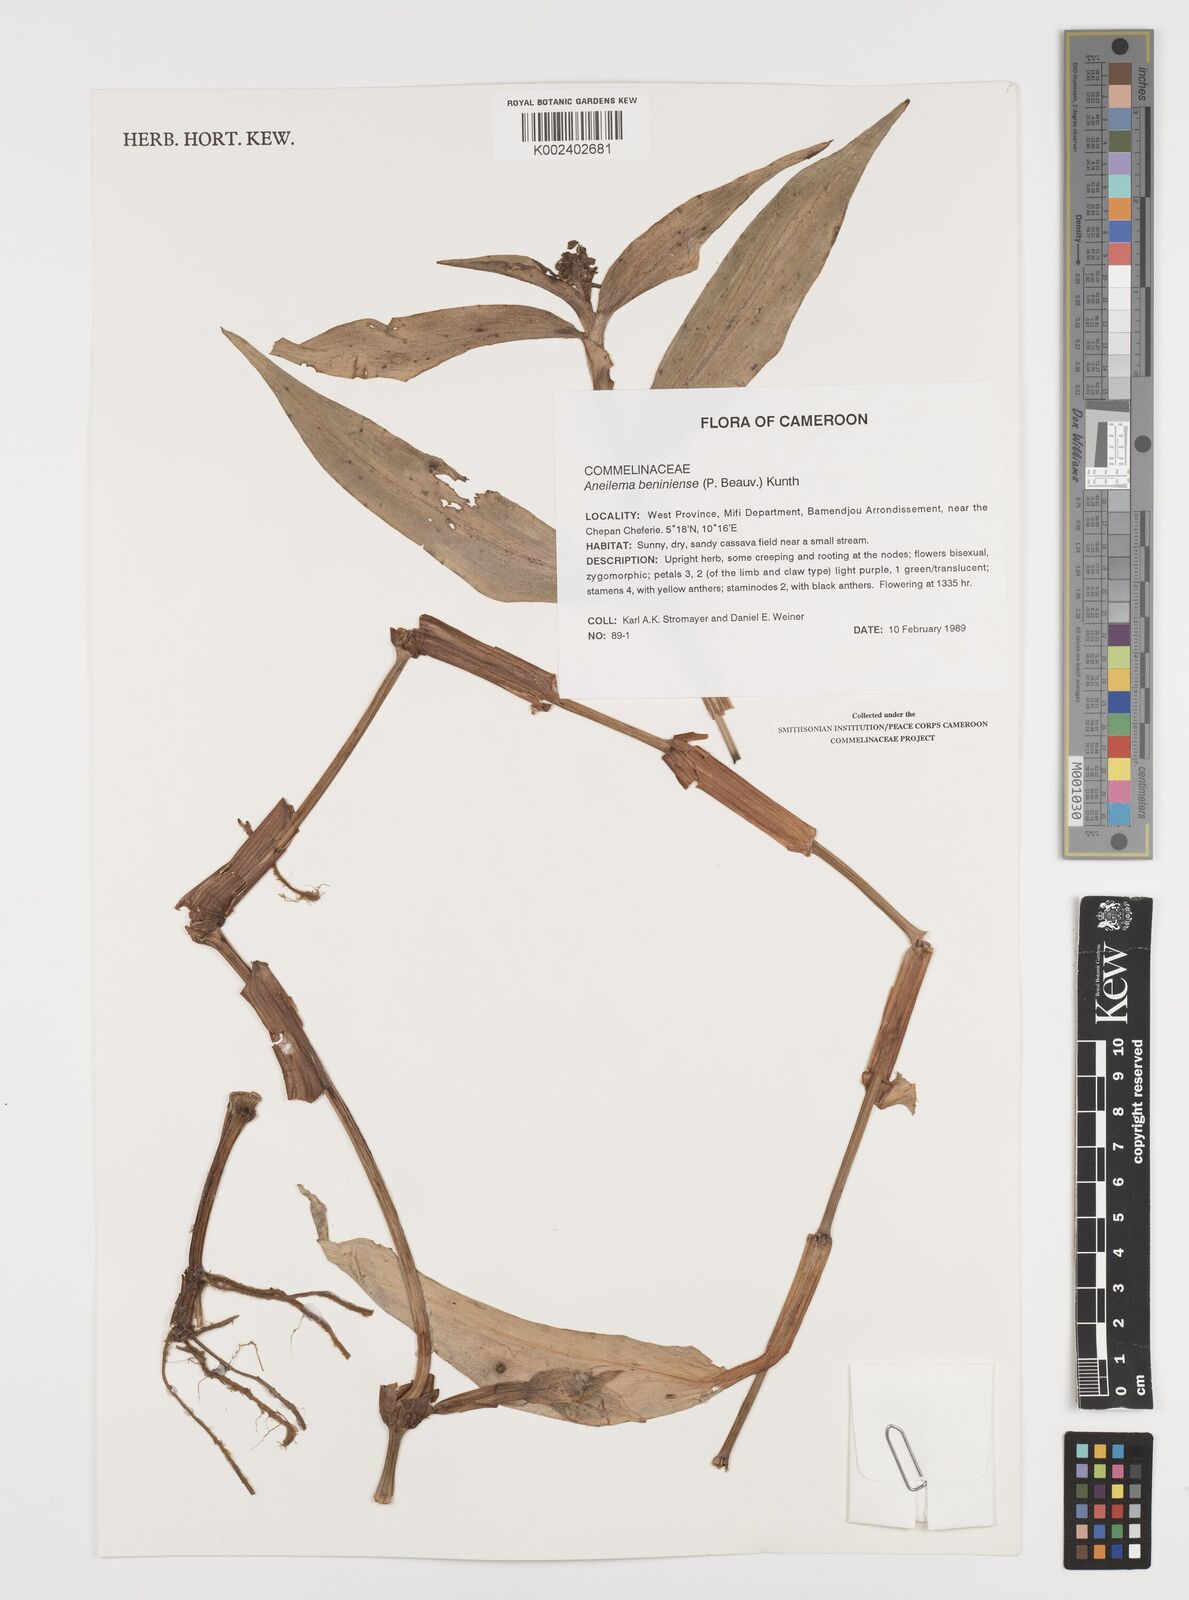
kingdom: Plantae
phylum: Tracheophyta
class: Liliopsida
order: Commelinales
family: Commelinaceae
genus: Aneilema
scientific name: Aneilema beniniense
